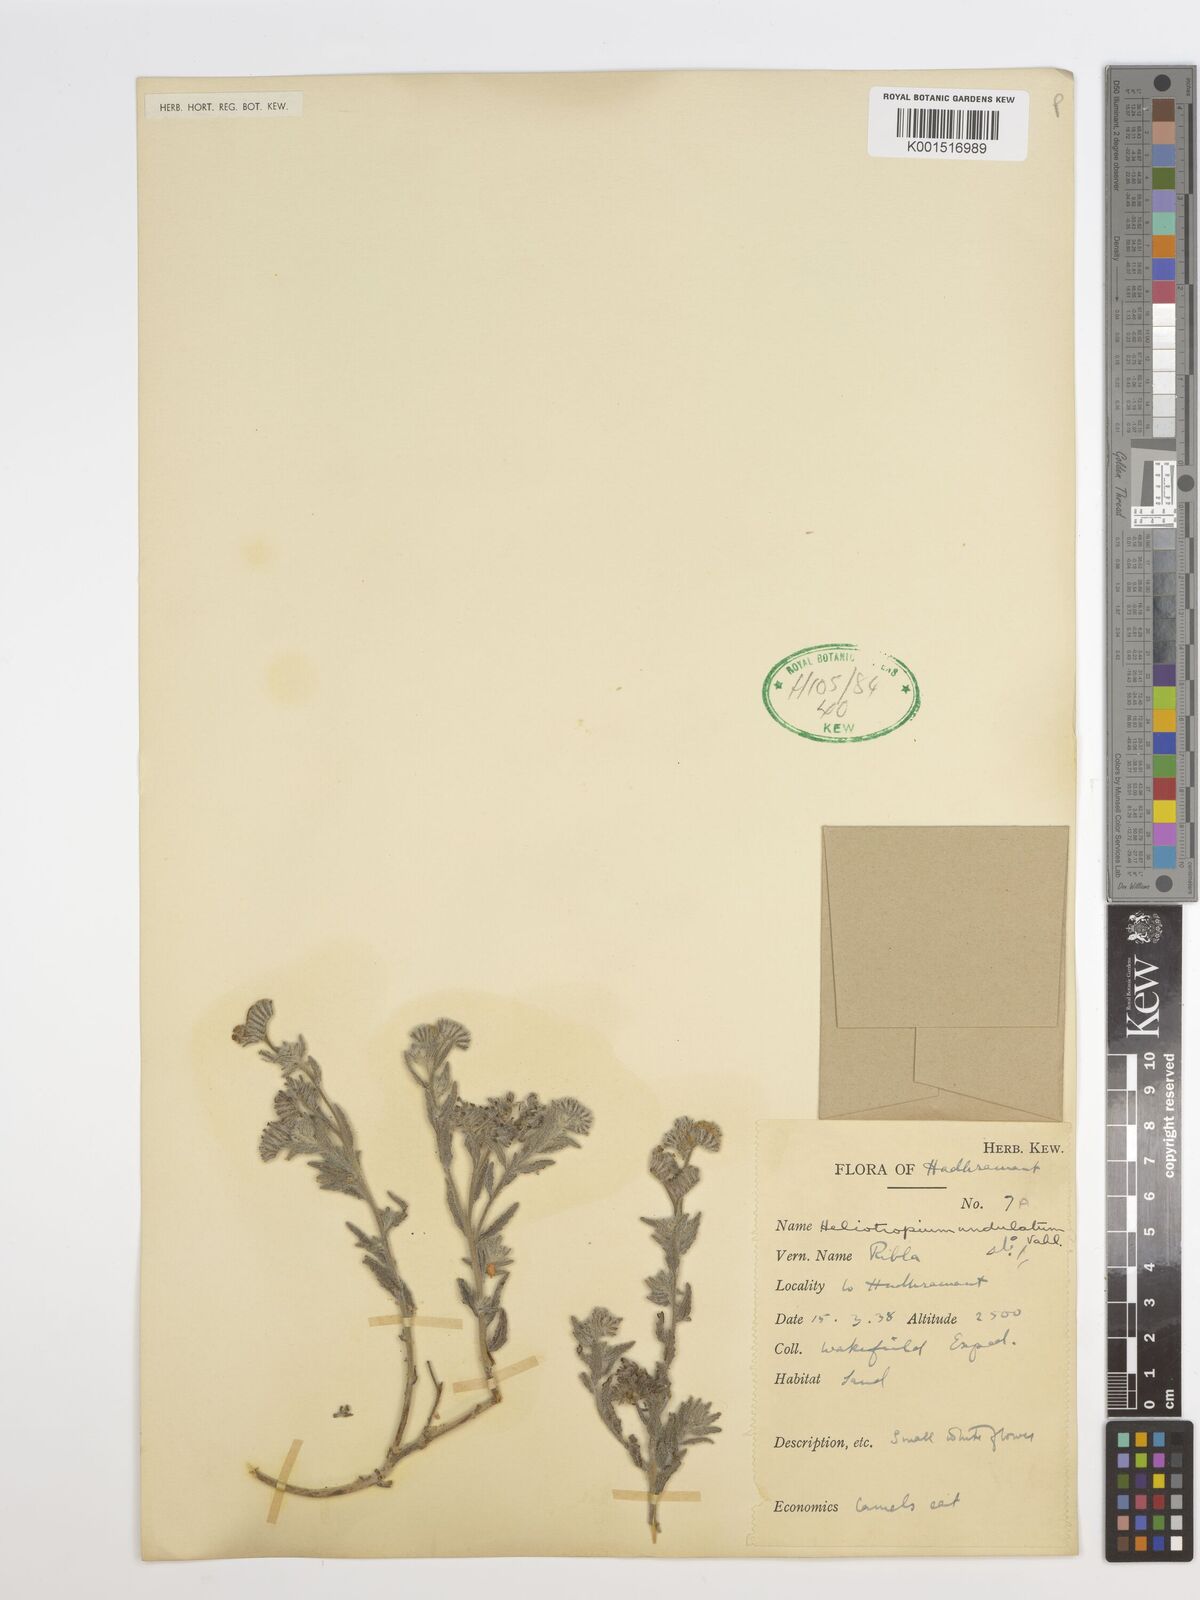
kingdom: Plantae
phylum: Tracheophyta
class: Magnoliopsida
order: Boraginales
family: Heliotropiaceae
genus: Heliotropium
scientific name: Heliotropium bacciferum
